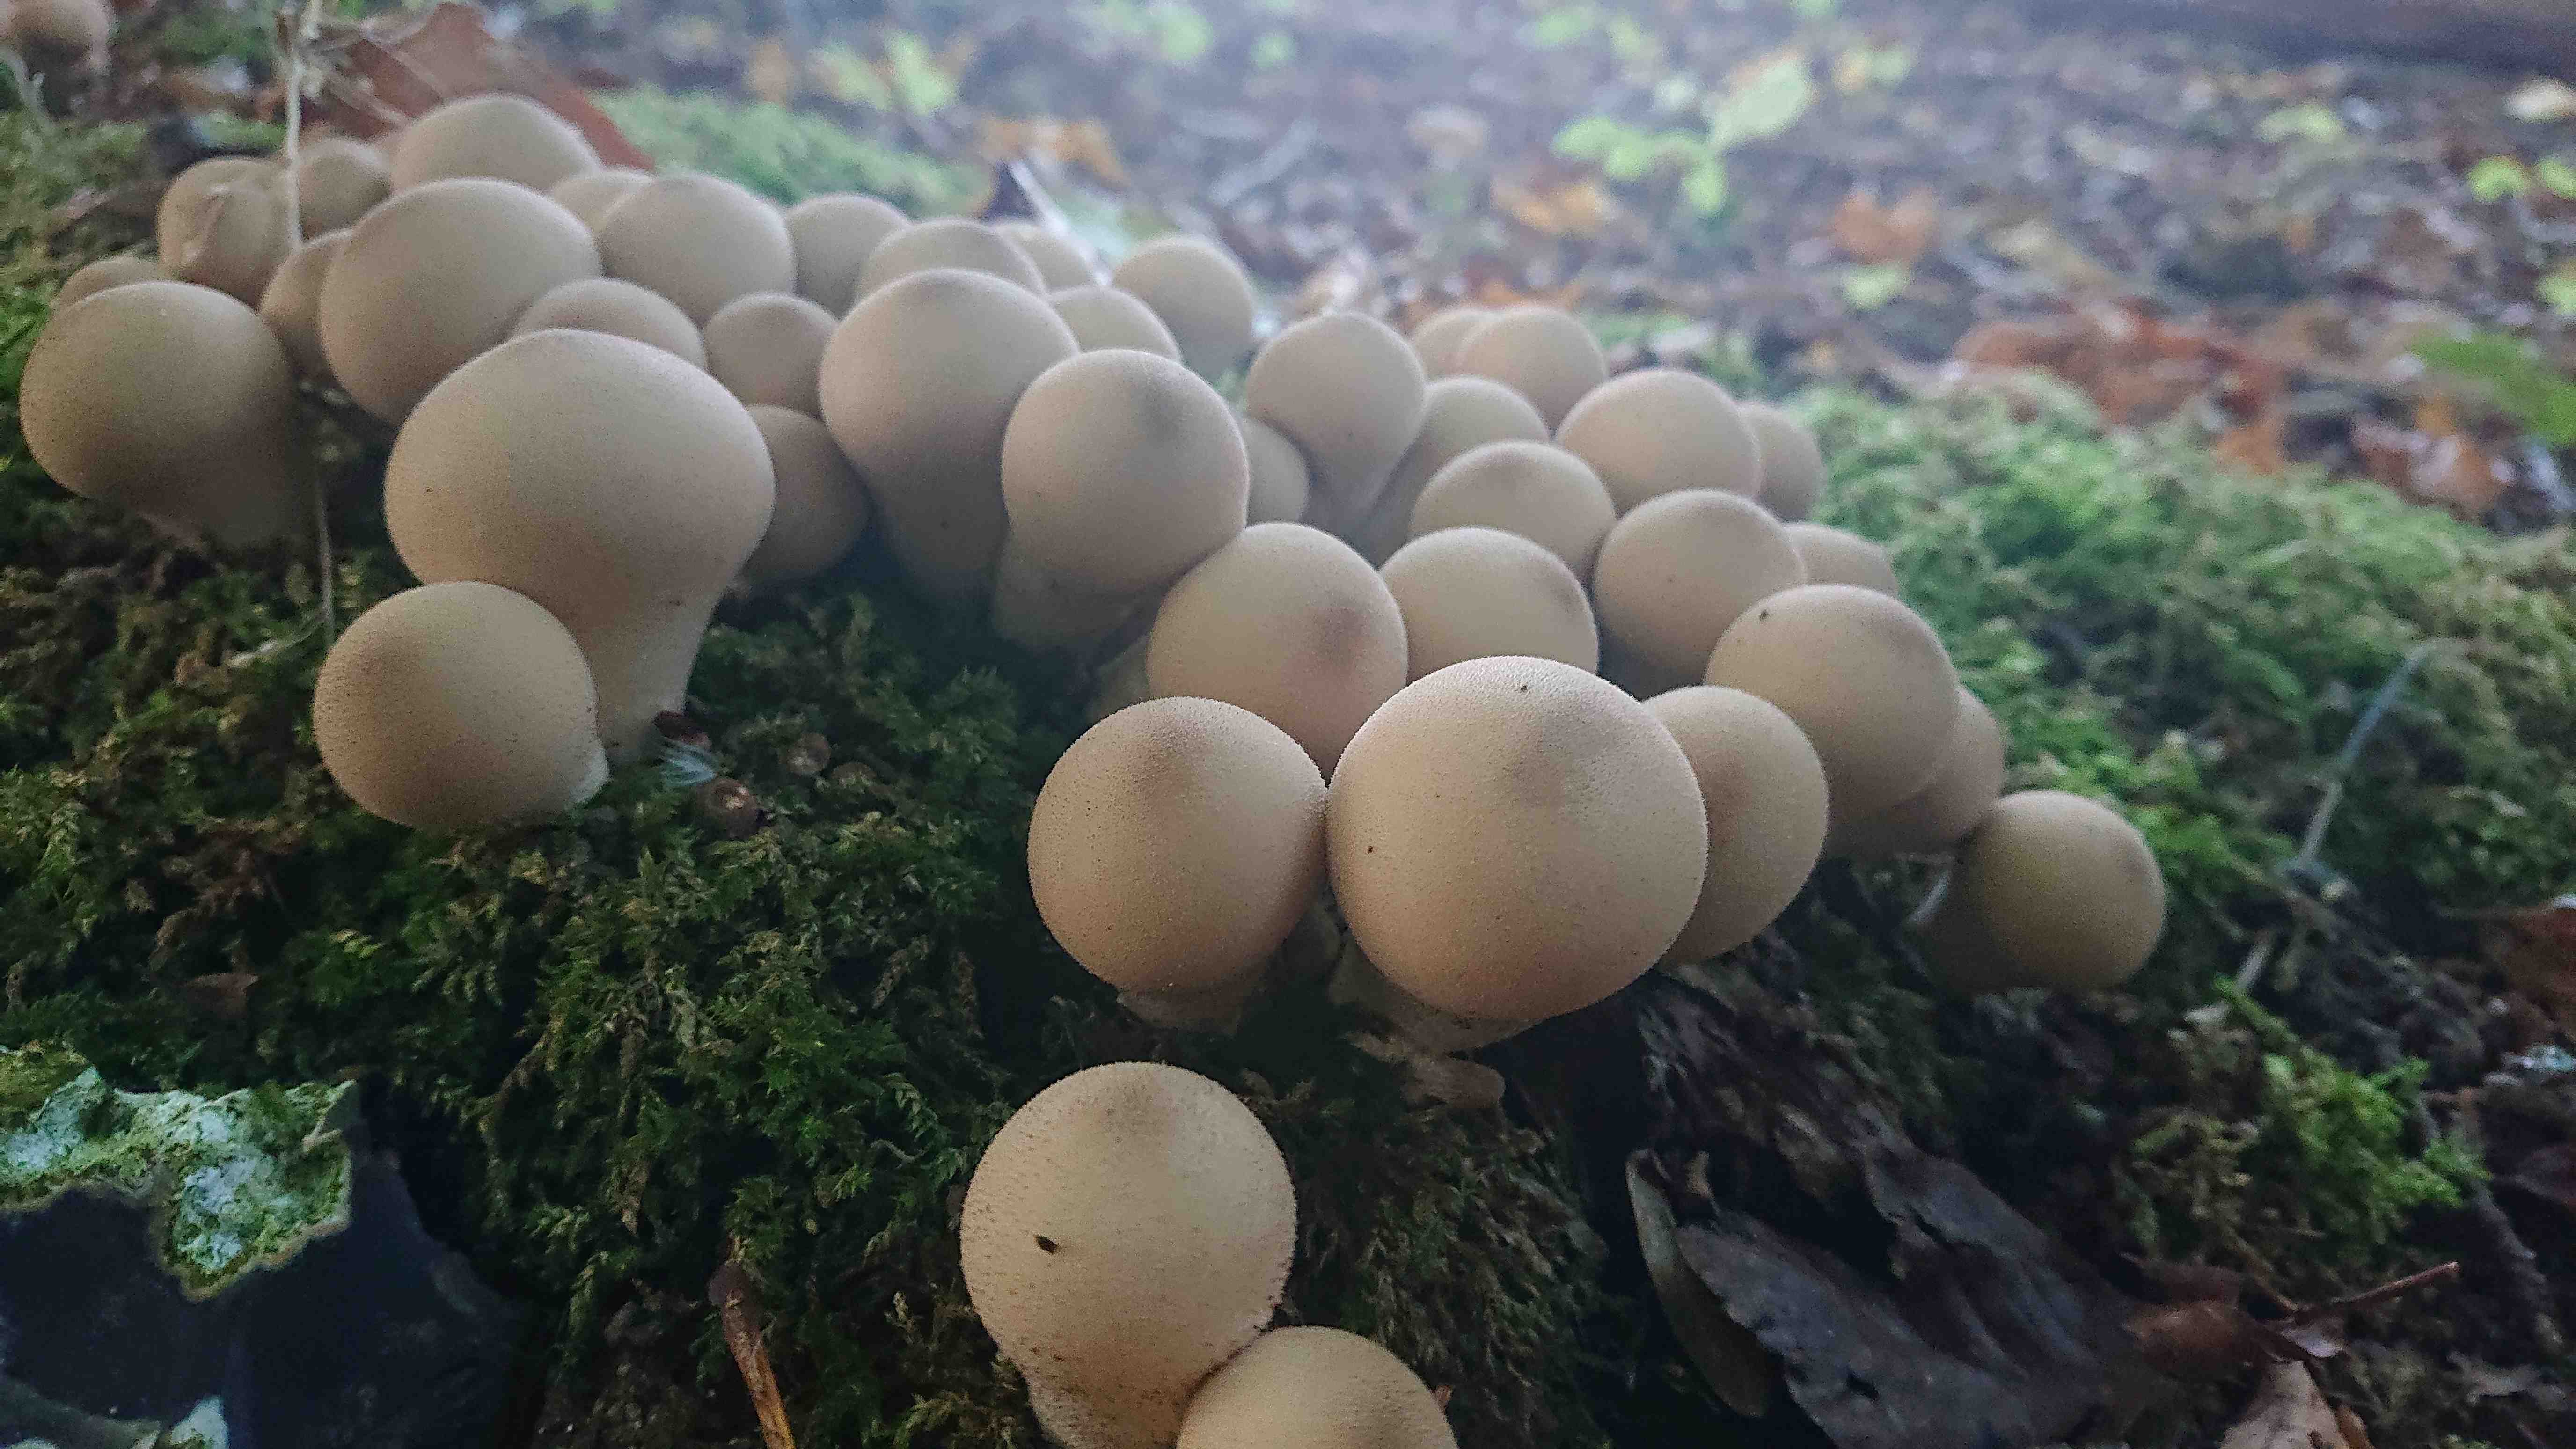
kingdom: Fungi
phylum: Basidiomycota
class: Agaricomycetes
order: Agaricales
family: Lycoperdaceae
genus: Apioperdon
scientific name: Apioperdon pyriforme
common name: pære-støvbold
